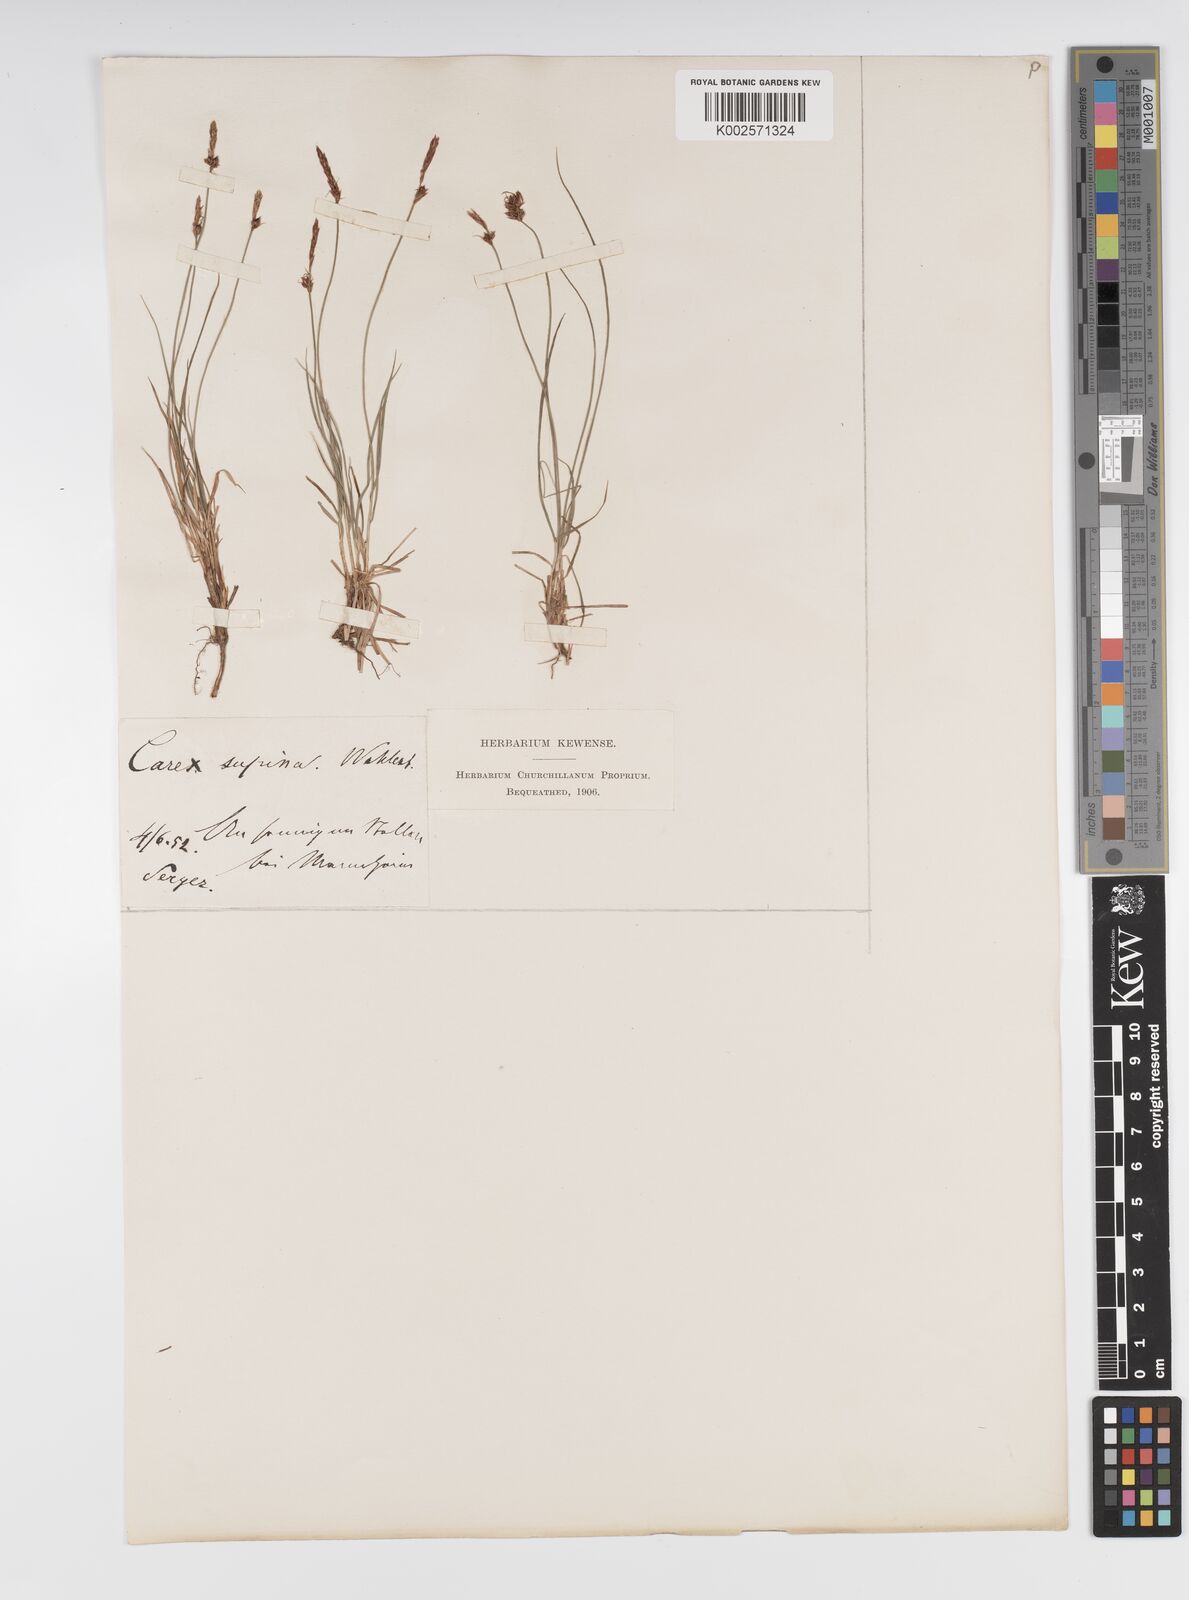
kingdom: Plantae
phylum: Tracheophyta
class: Liliopsida
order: Poales
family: Cyperaceae
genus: Carex
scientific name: Carex supina
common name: Lying-back sedge
